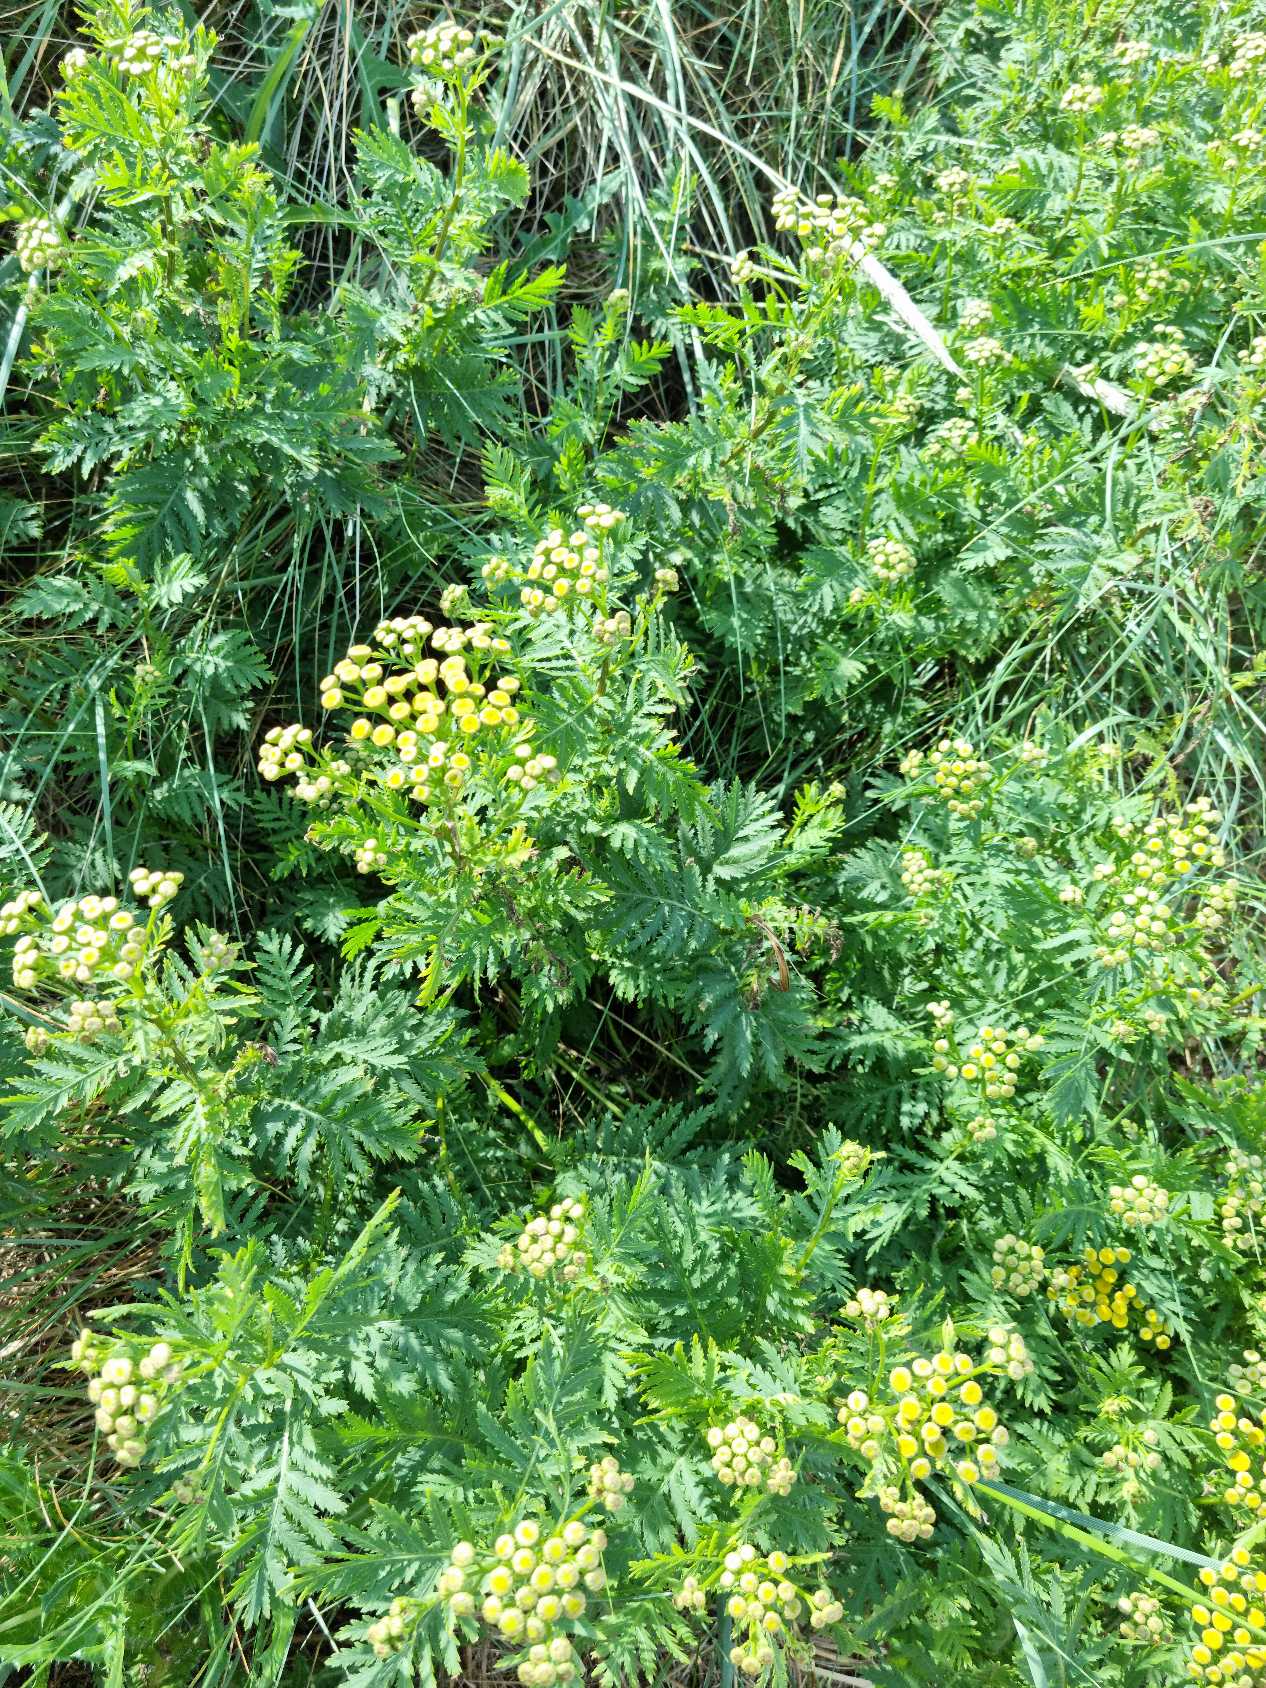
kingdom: Plantae
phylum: Tracheophyta
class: Magnoliopsida
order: Asterales
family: Asteraceae
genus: Tanacetum
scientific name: Tanacetum vulgare
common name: Rejnfan
